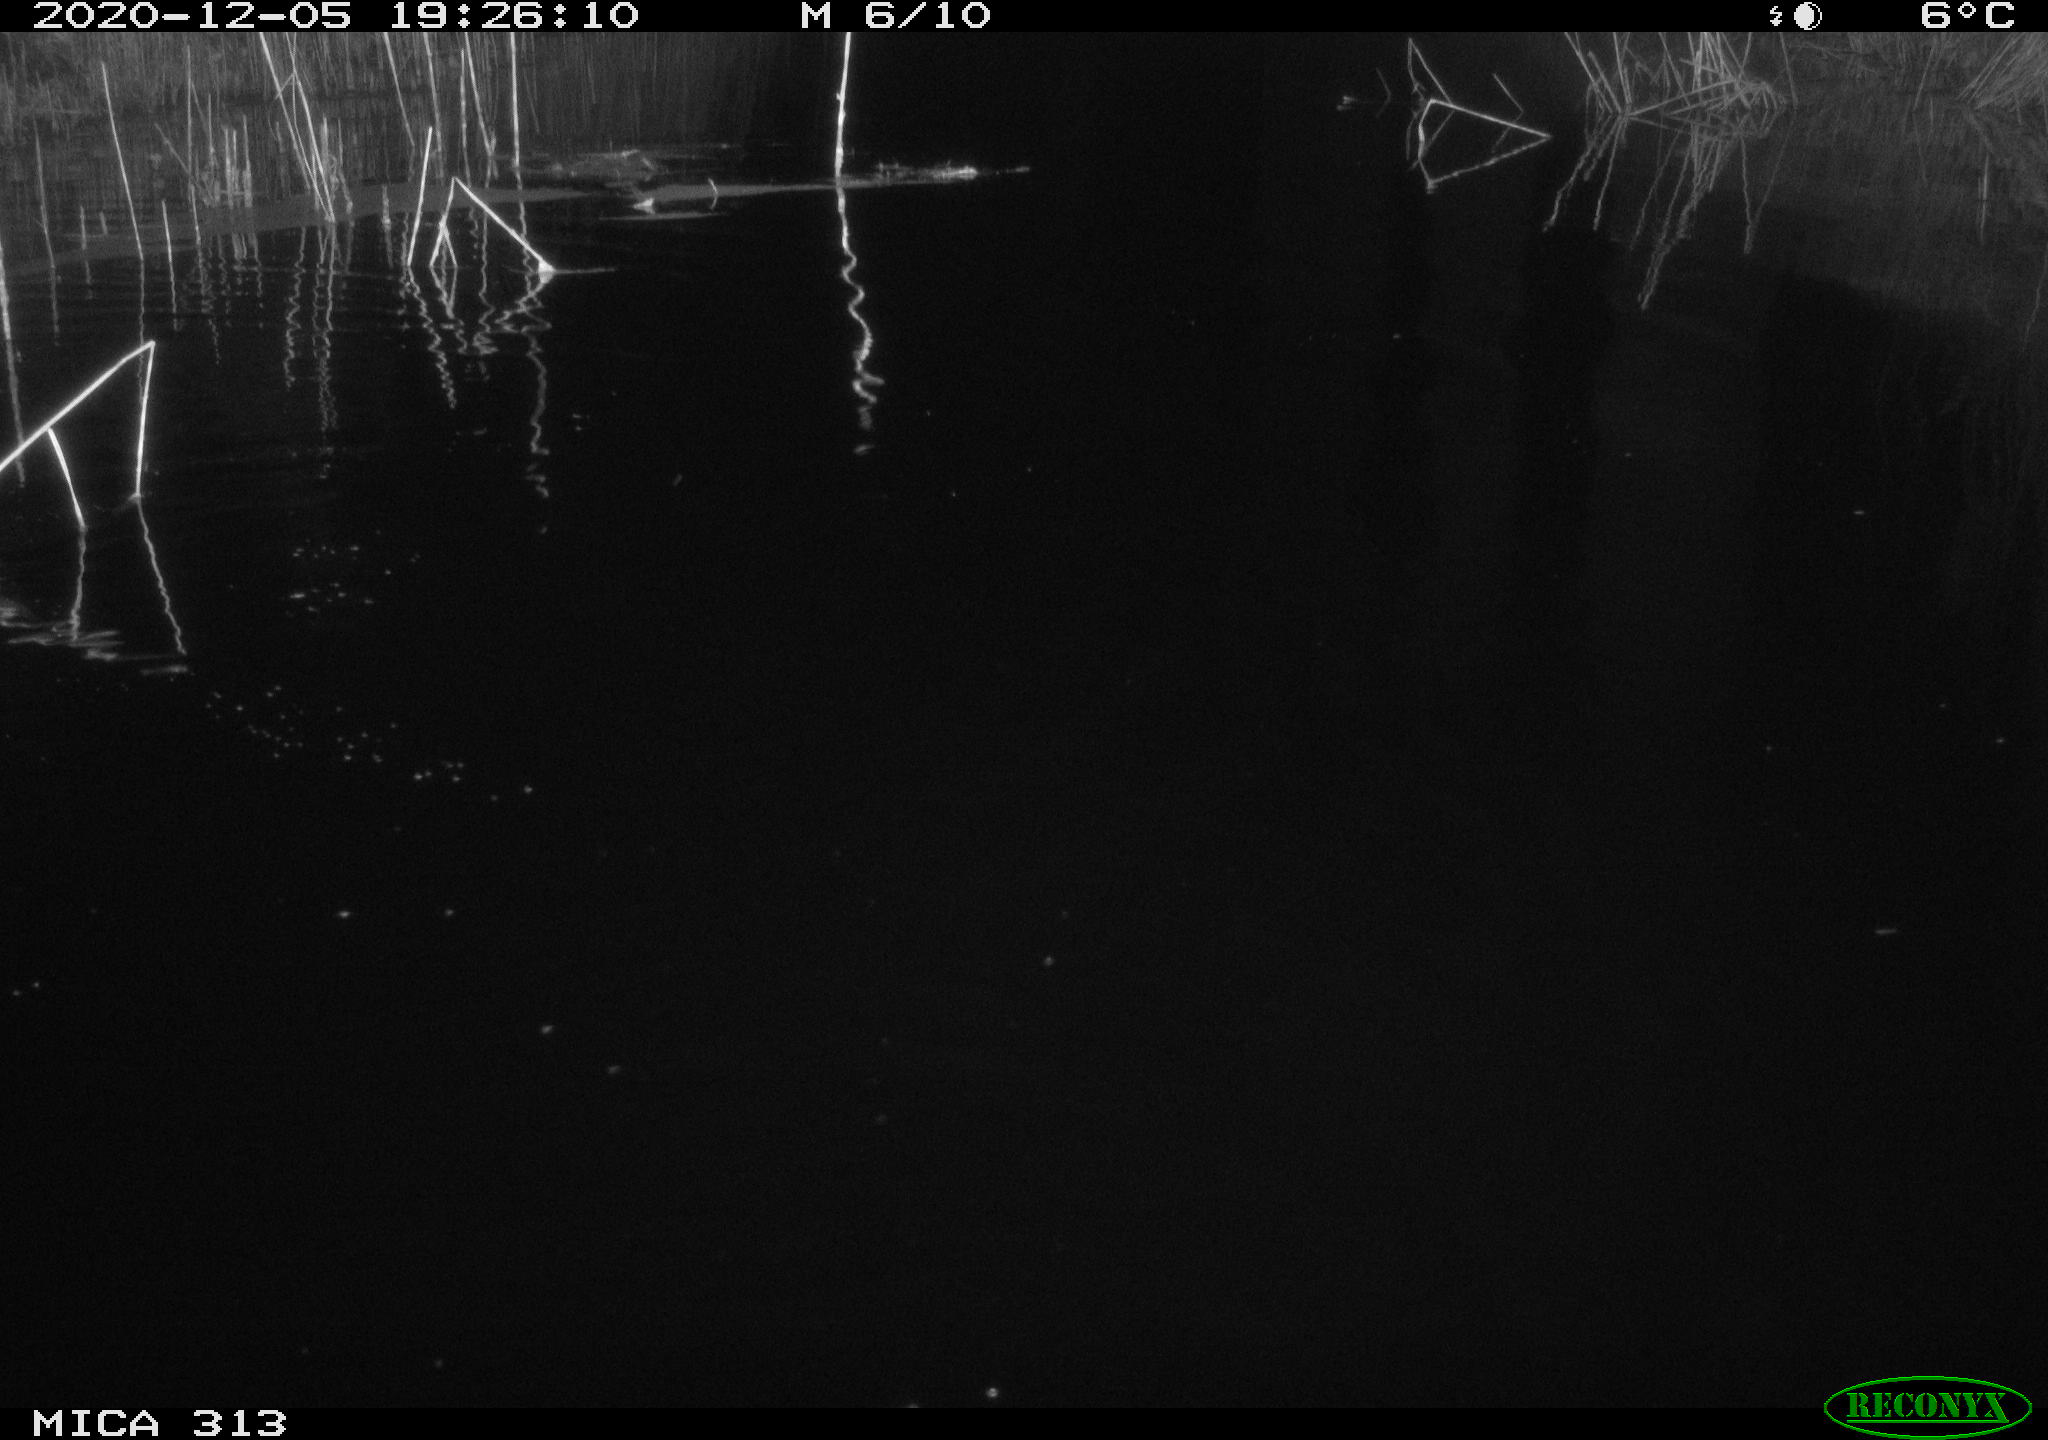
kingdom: Animalia
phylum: Chordata
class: Mammalia
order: Rodentia
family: Muridae
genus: Rattus
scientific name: Rattus norvegicus
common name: Brown rat
